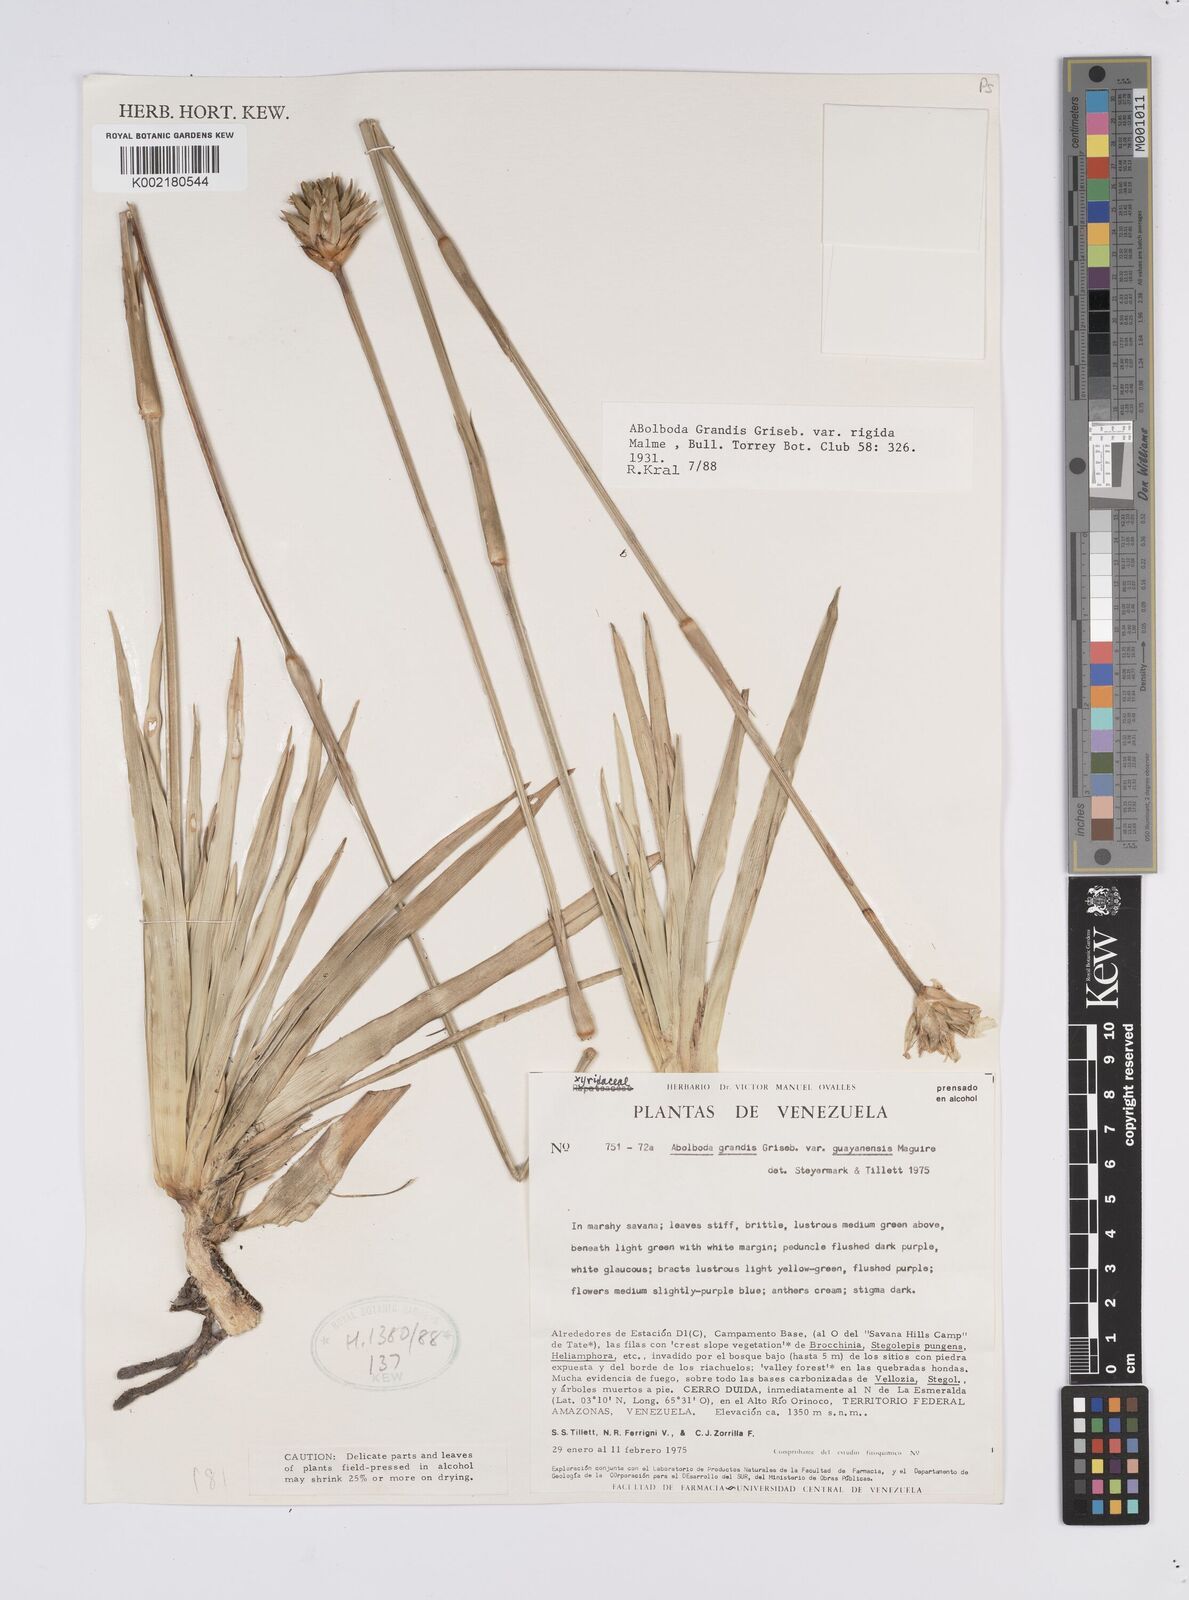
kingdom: Plantae
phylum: Tracheophyta
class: Liliopsida
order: Poales
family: Xyridaceae
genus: Abolboda
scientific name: Abolboda grandis
